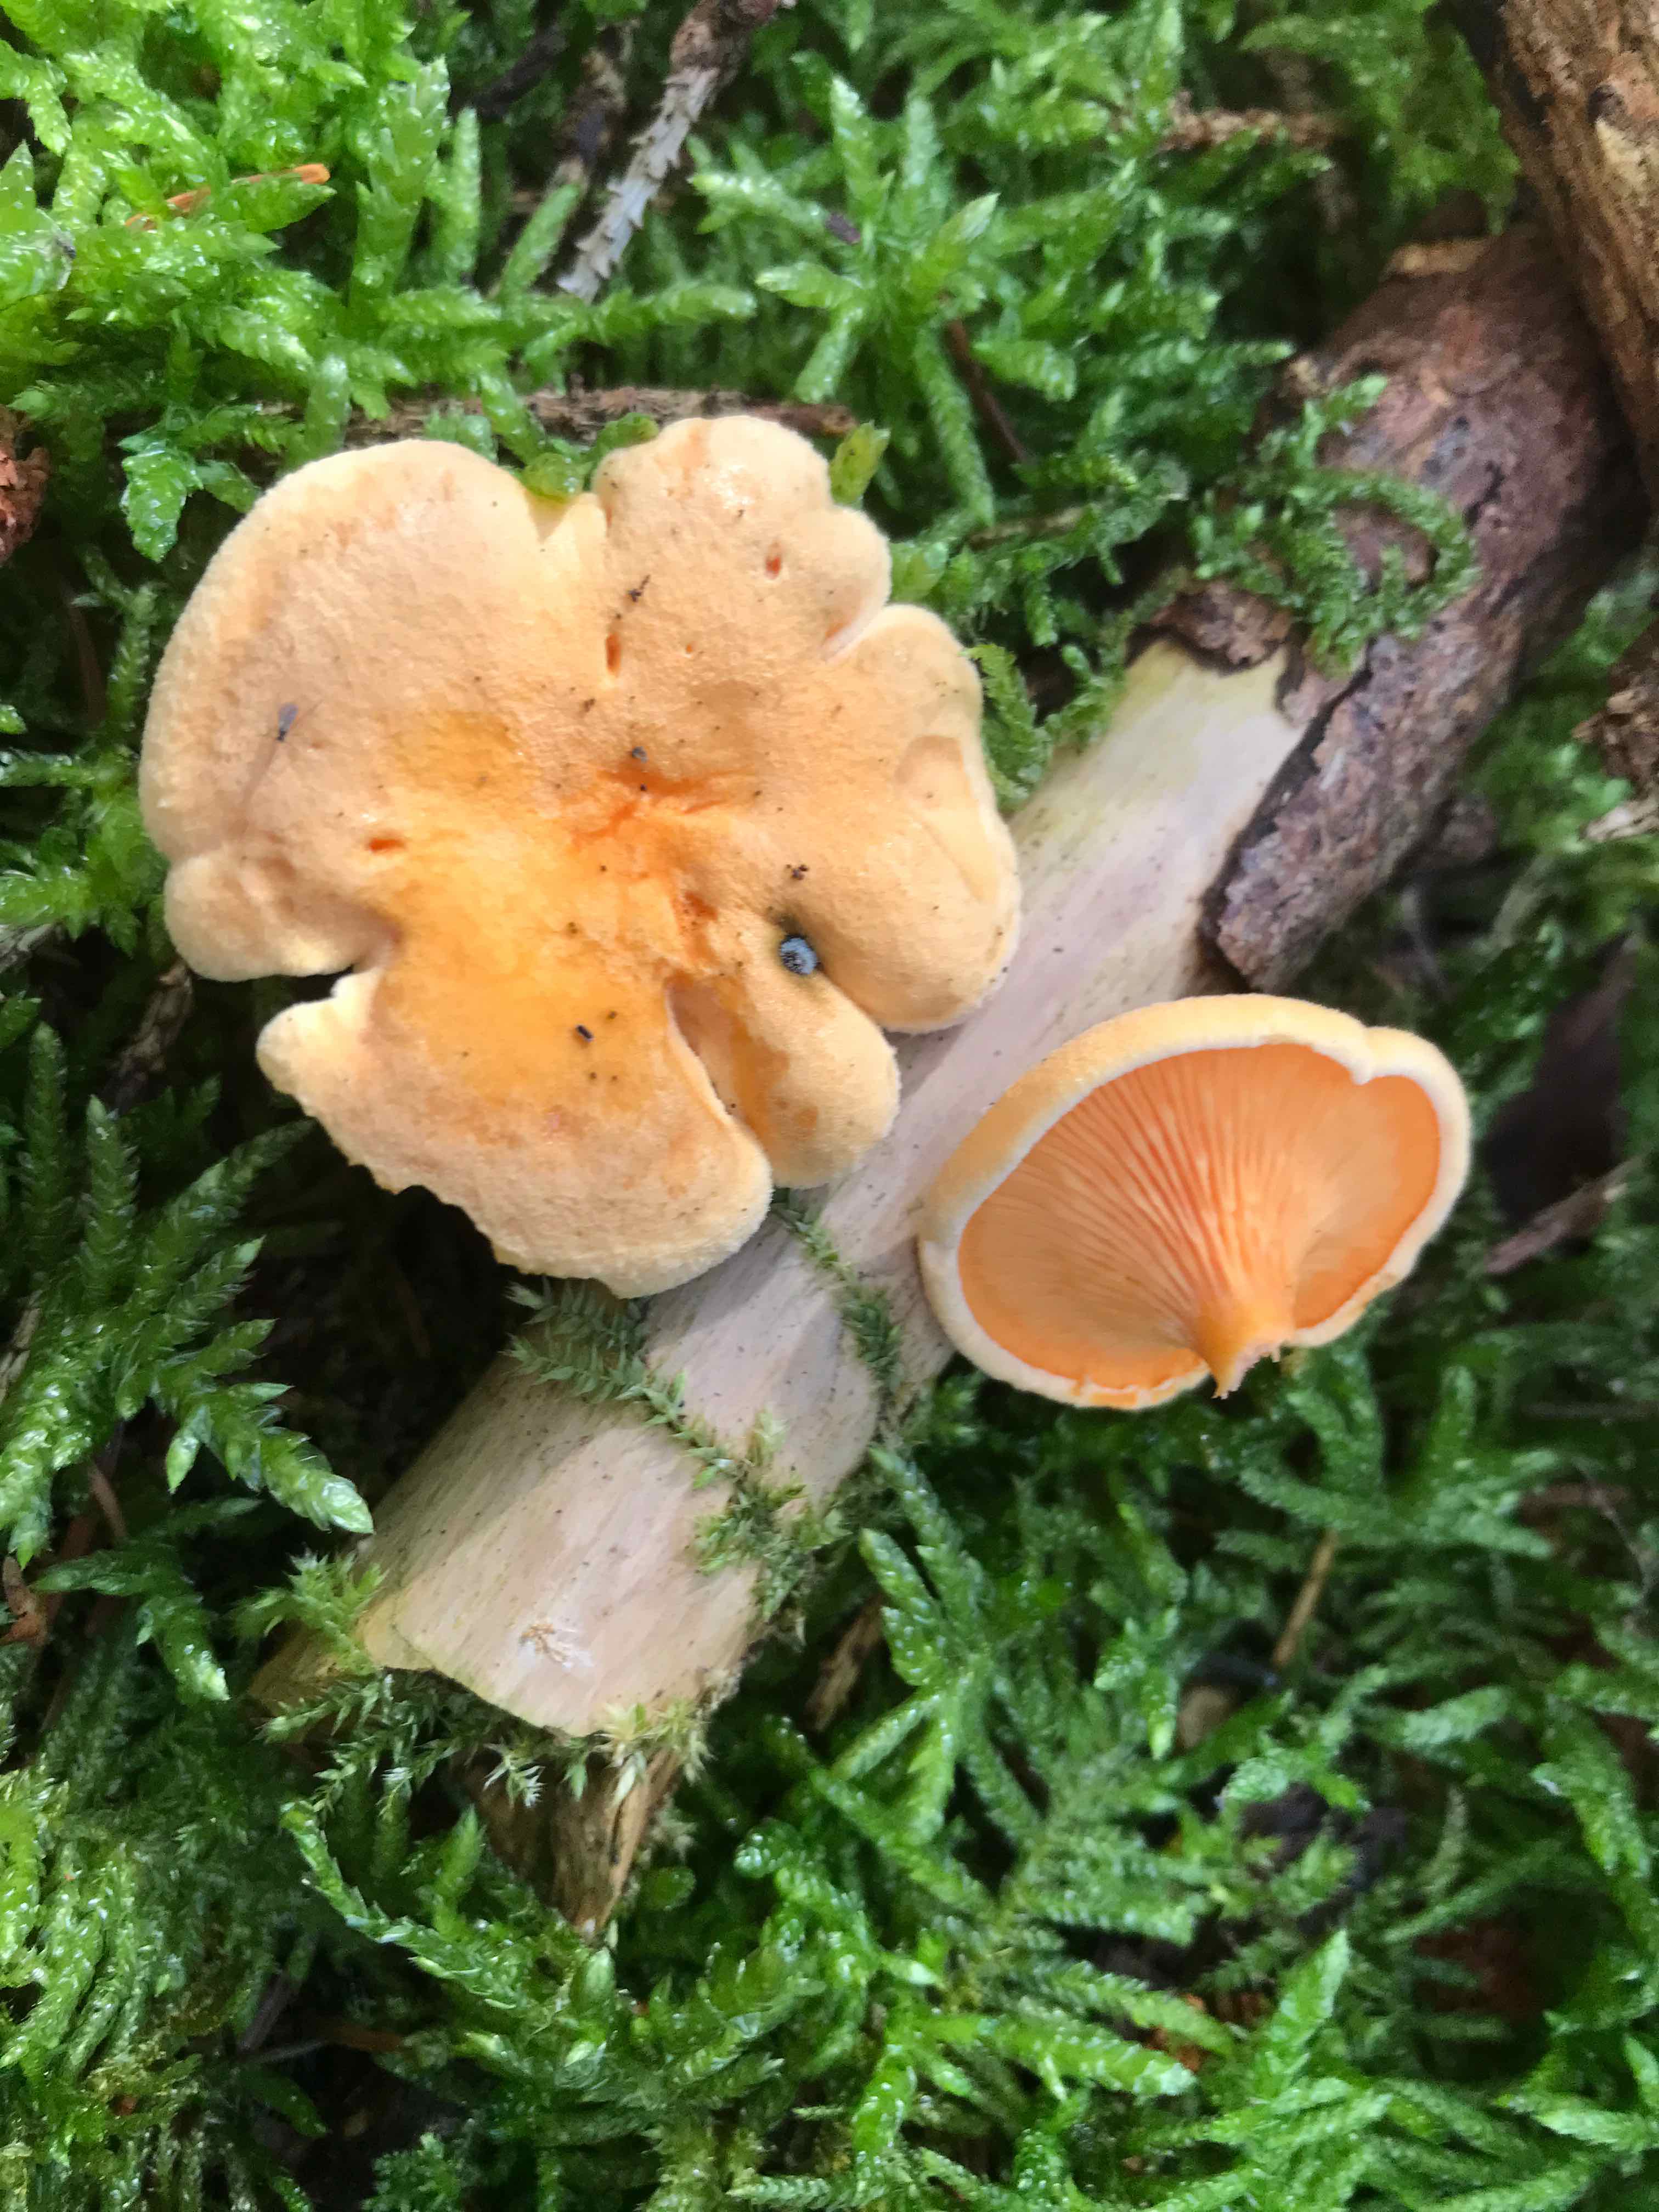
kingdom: Fungi
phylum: Basidiomycota
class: Agaricomycetes
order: Boletales
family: Hygrophoropsidaceae
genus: Hygrophoropsis
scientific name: Hygrophoropsis aurantiaca
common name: almindelig orangekantarel
